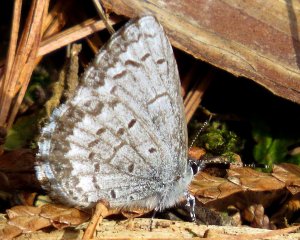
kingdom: Animalia
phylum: Arthropoda
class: Insecta
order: Lepidoptera
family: Lycaenidae
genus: Celastrina
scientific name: Celastrina lucia
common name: Northern Spring Azure
